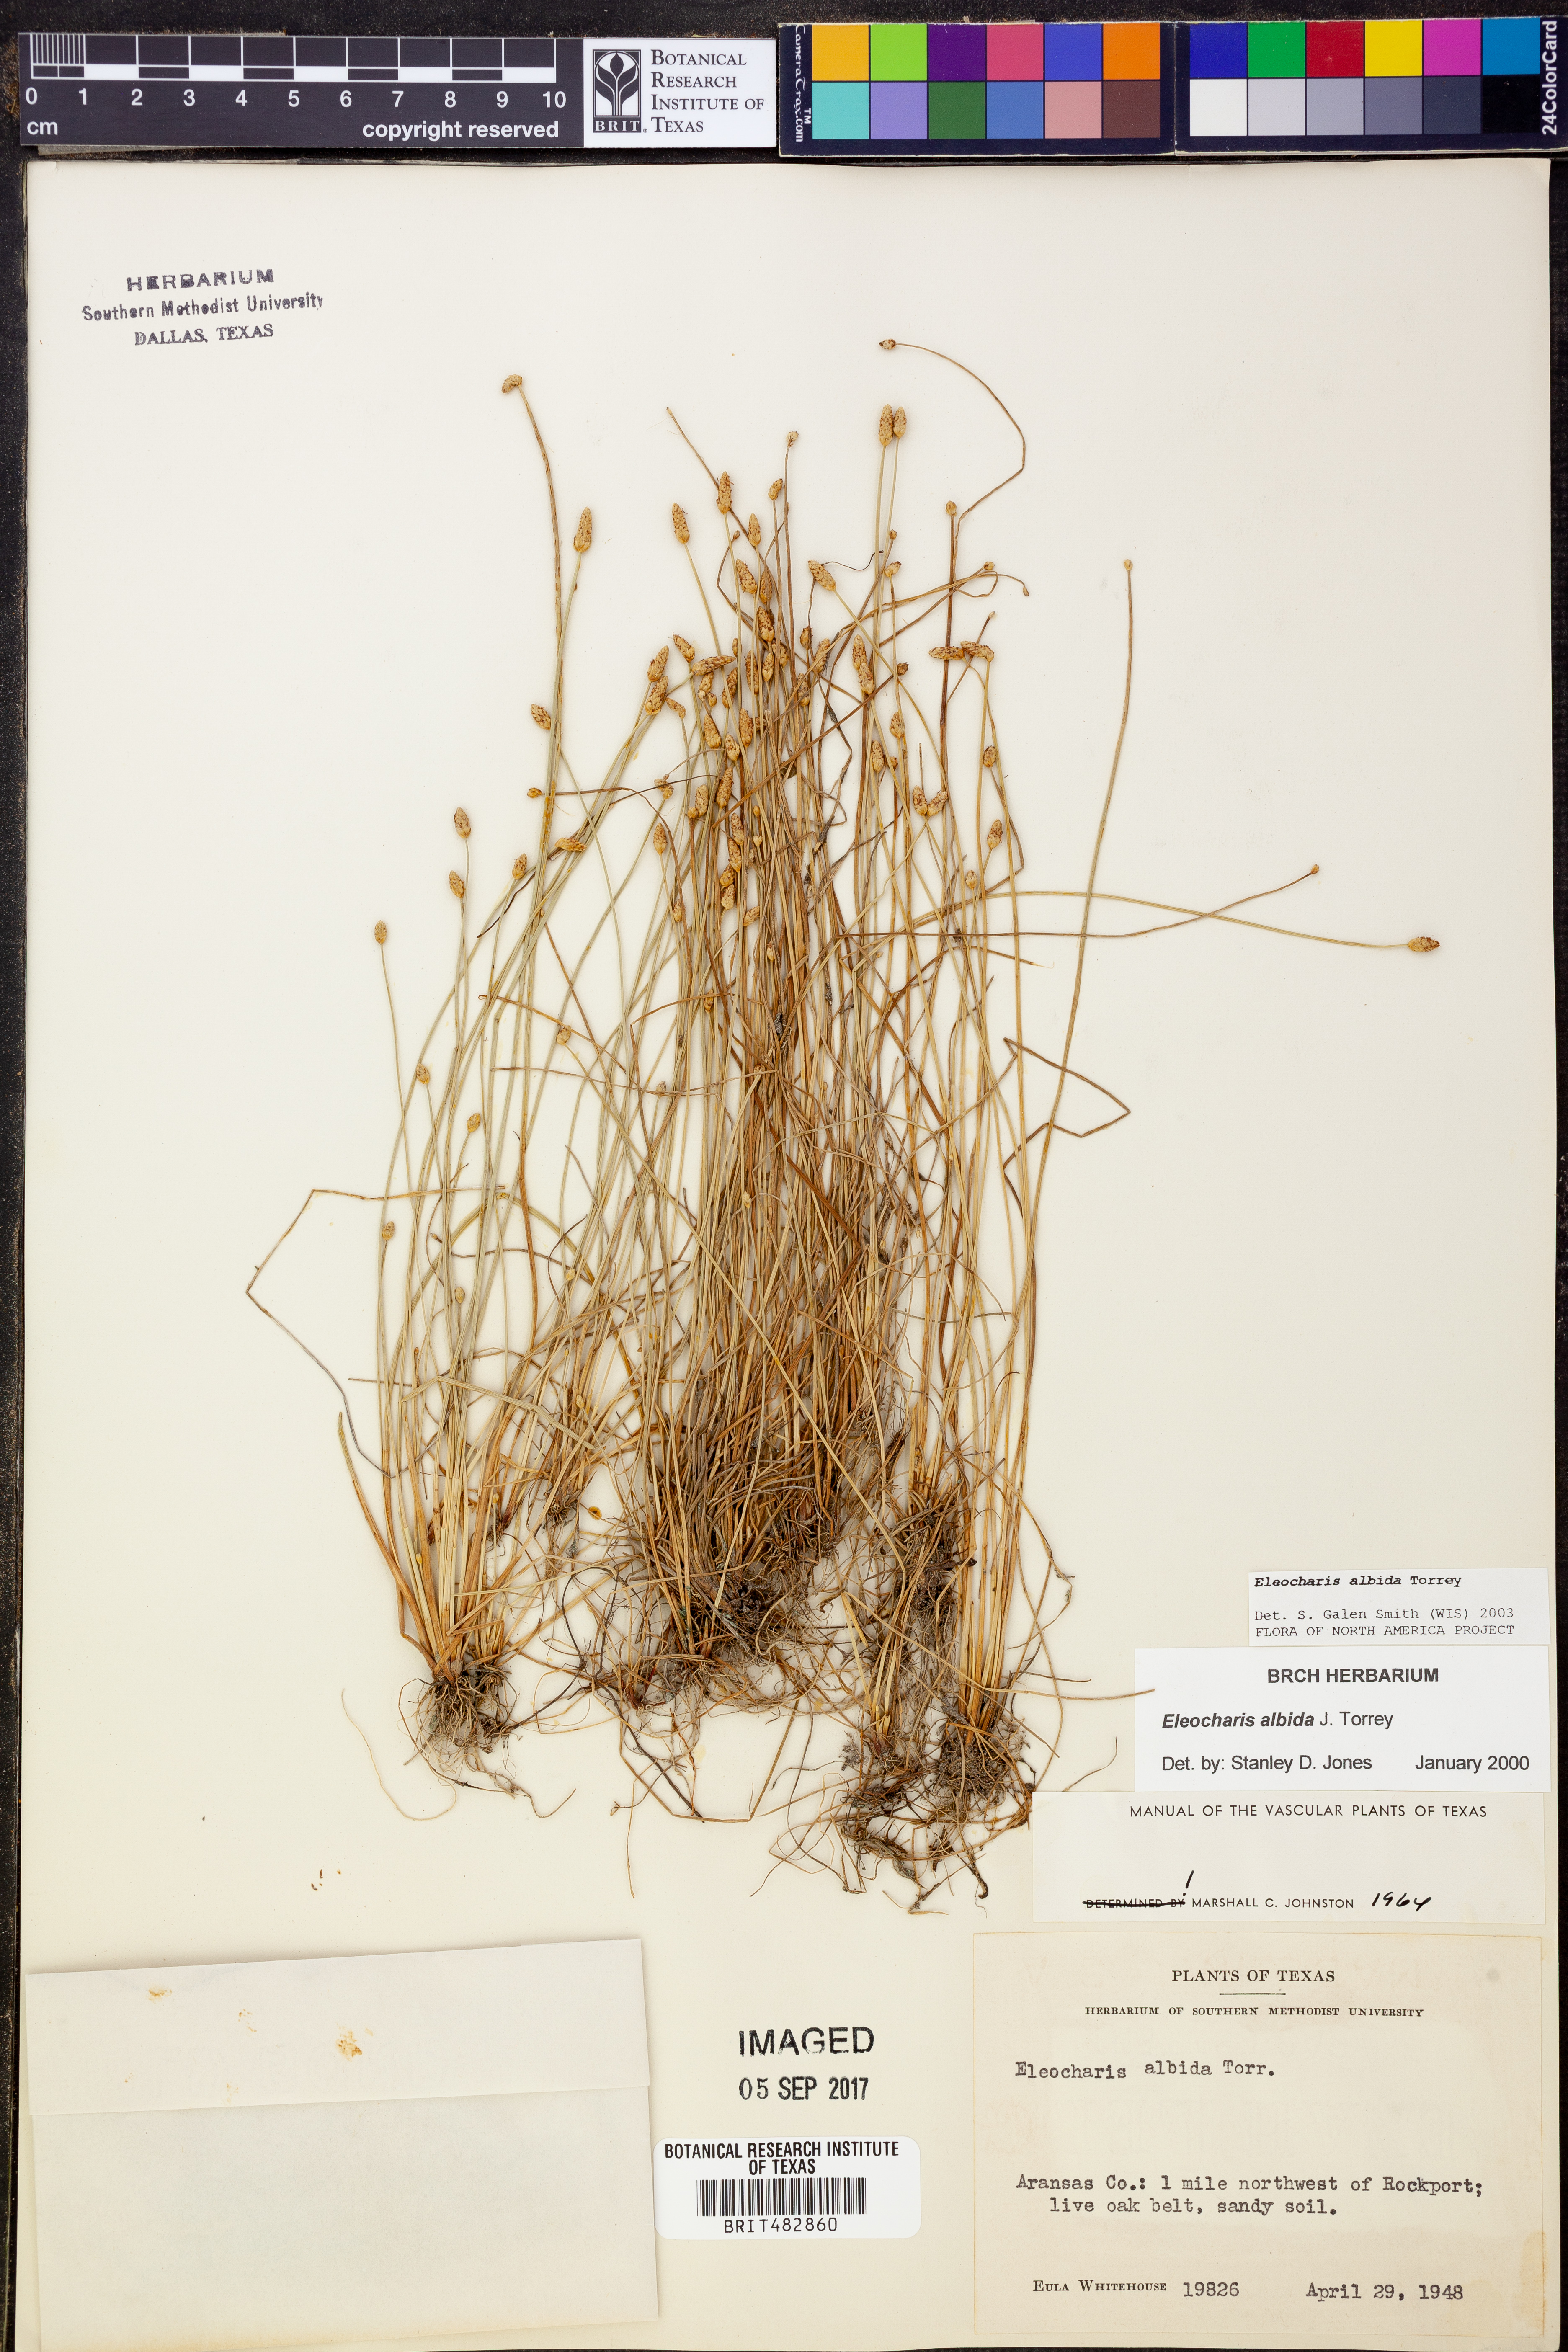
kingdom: Plantae
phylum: Tracheophyta
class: Liliopsida
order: Poales
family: Cyperaceae
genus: Eleocharis
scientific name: Eleocharis albida
